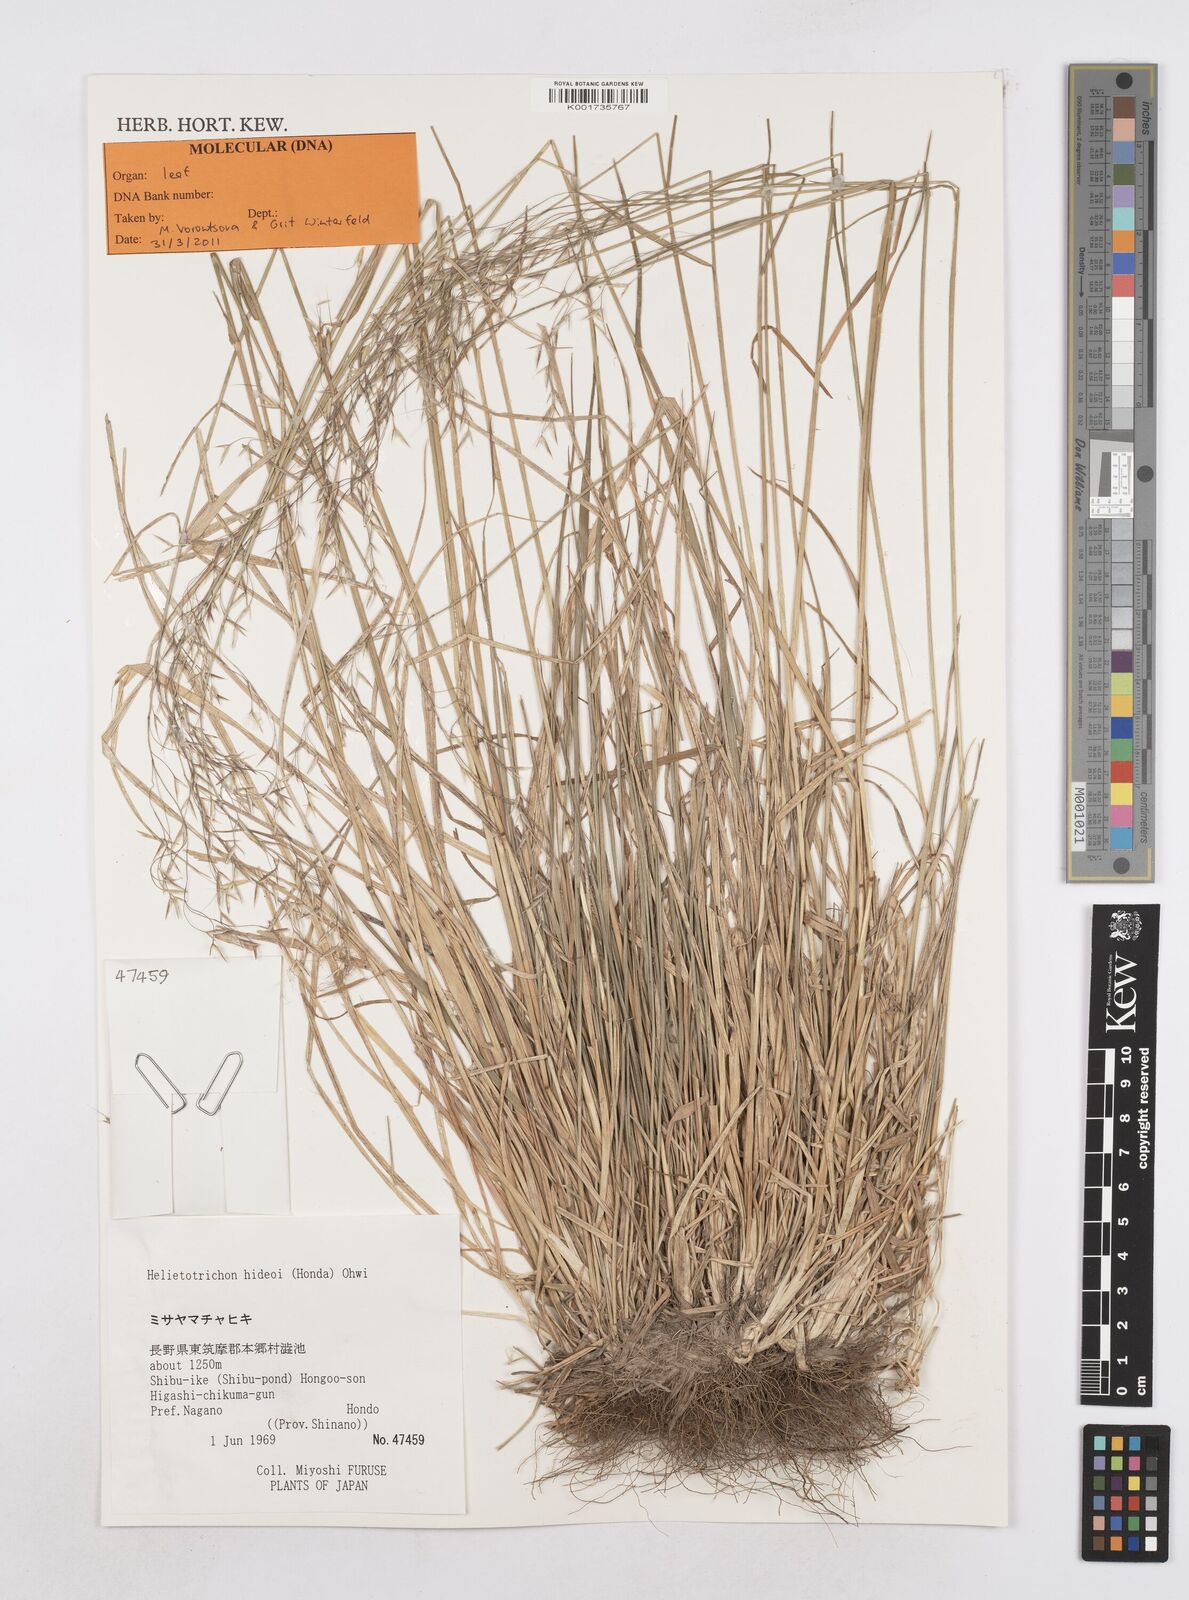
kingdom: Plantae
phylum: Tracheophyta
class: Liliopsida
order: Poales
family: Poaceae
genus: Helictotrichon
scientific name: Helictotrichon hideoi
